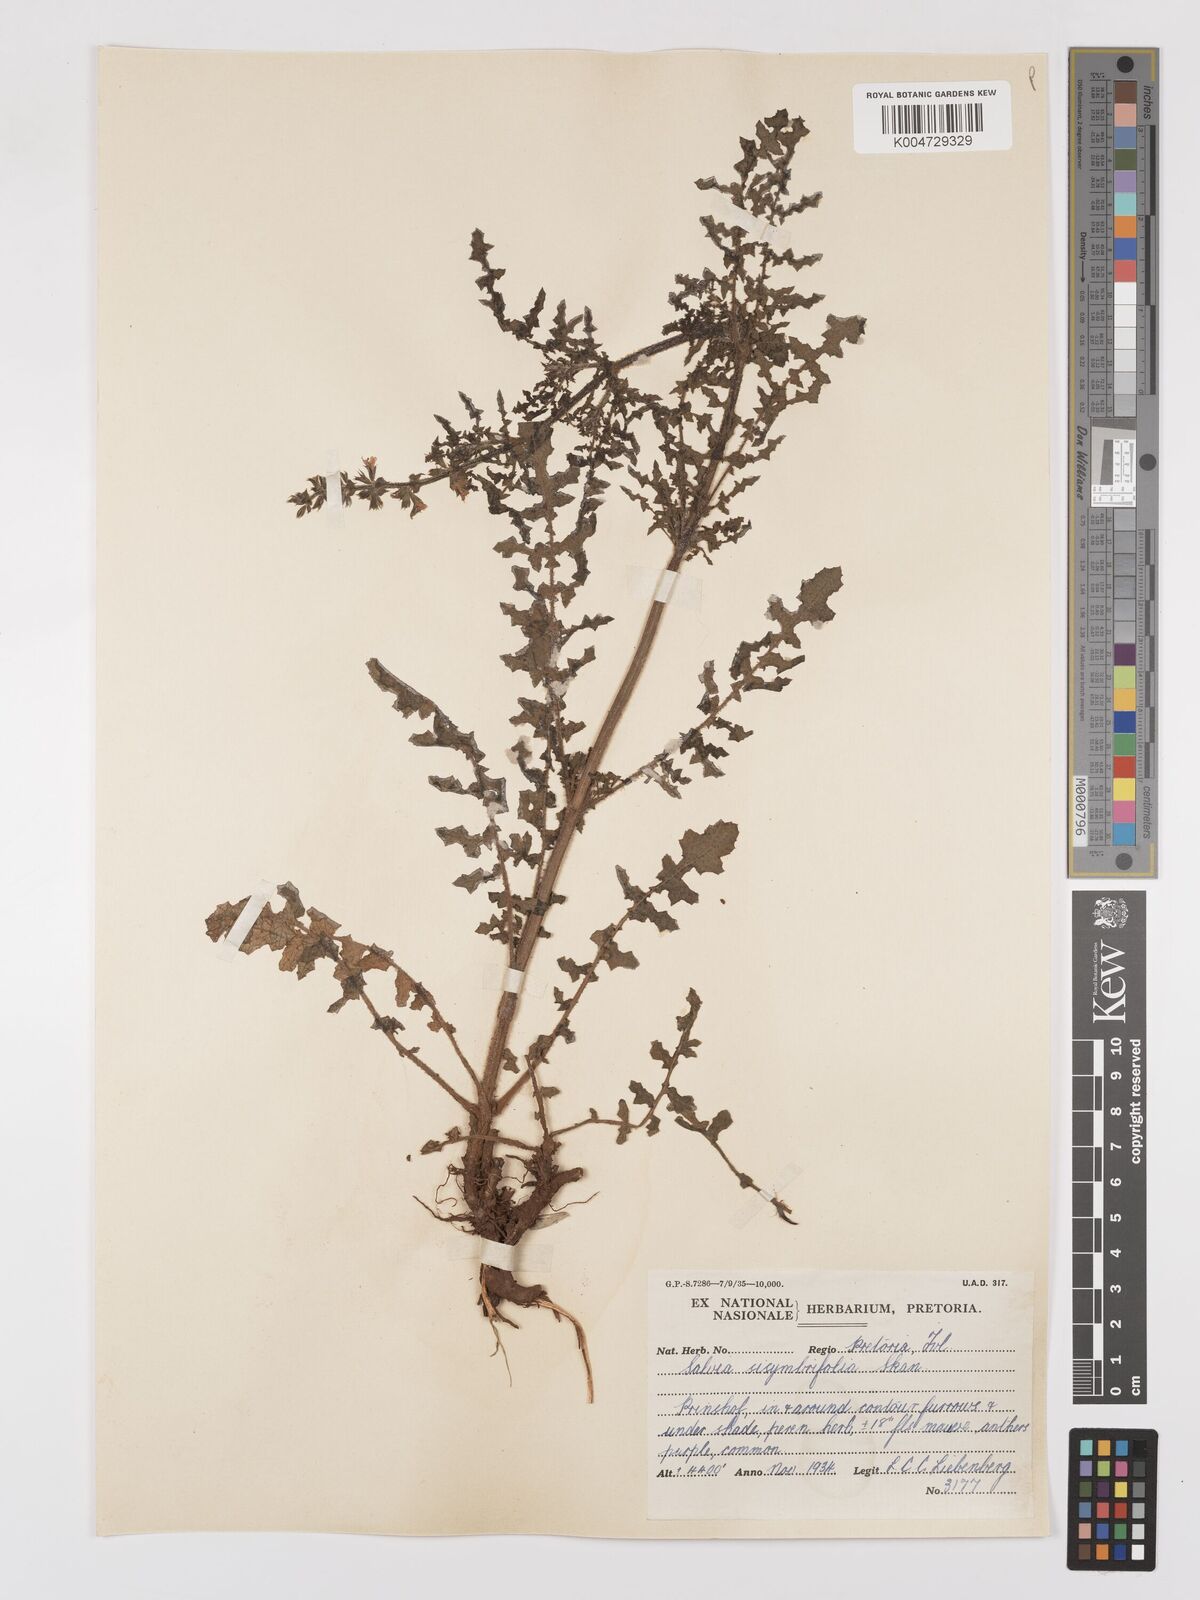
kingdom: Plantae
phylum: Tracheophyta
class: Magnoliopsida
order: Lamiales
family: Lamiaceae
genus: Salvia
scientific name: Salvia runcinata
